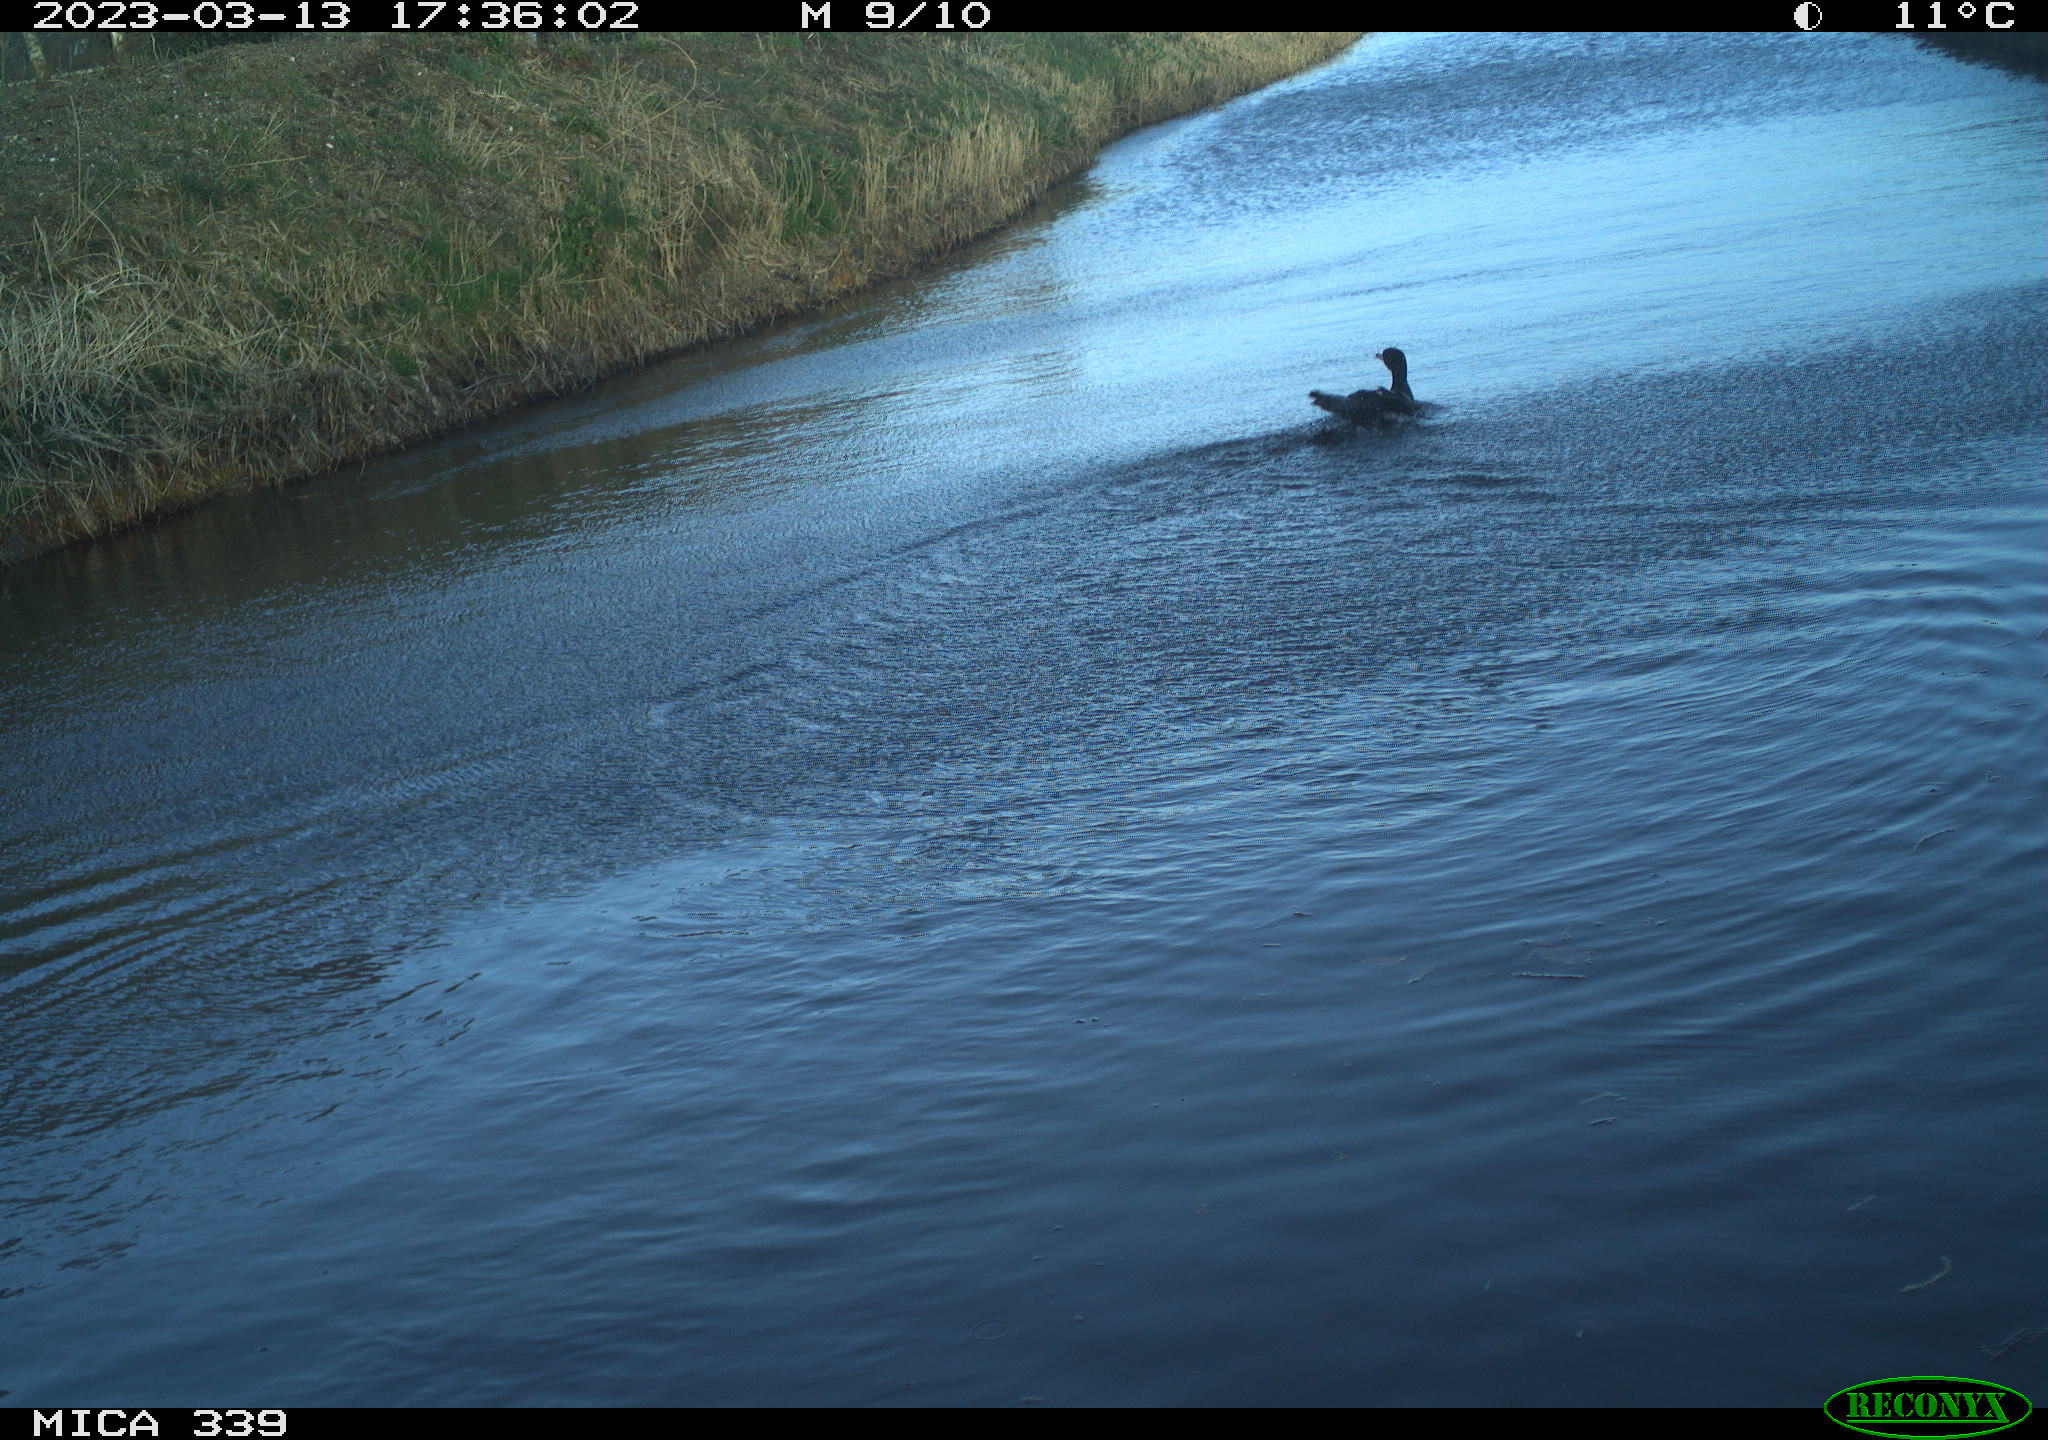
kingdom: Animalia
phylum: Chordata
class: Aves
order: Suliformes
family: Phalacrocoracidae
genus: Phalacrocorax
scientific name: Phalacrocorax carbo
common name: Great cormorant
